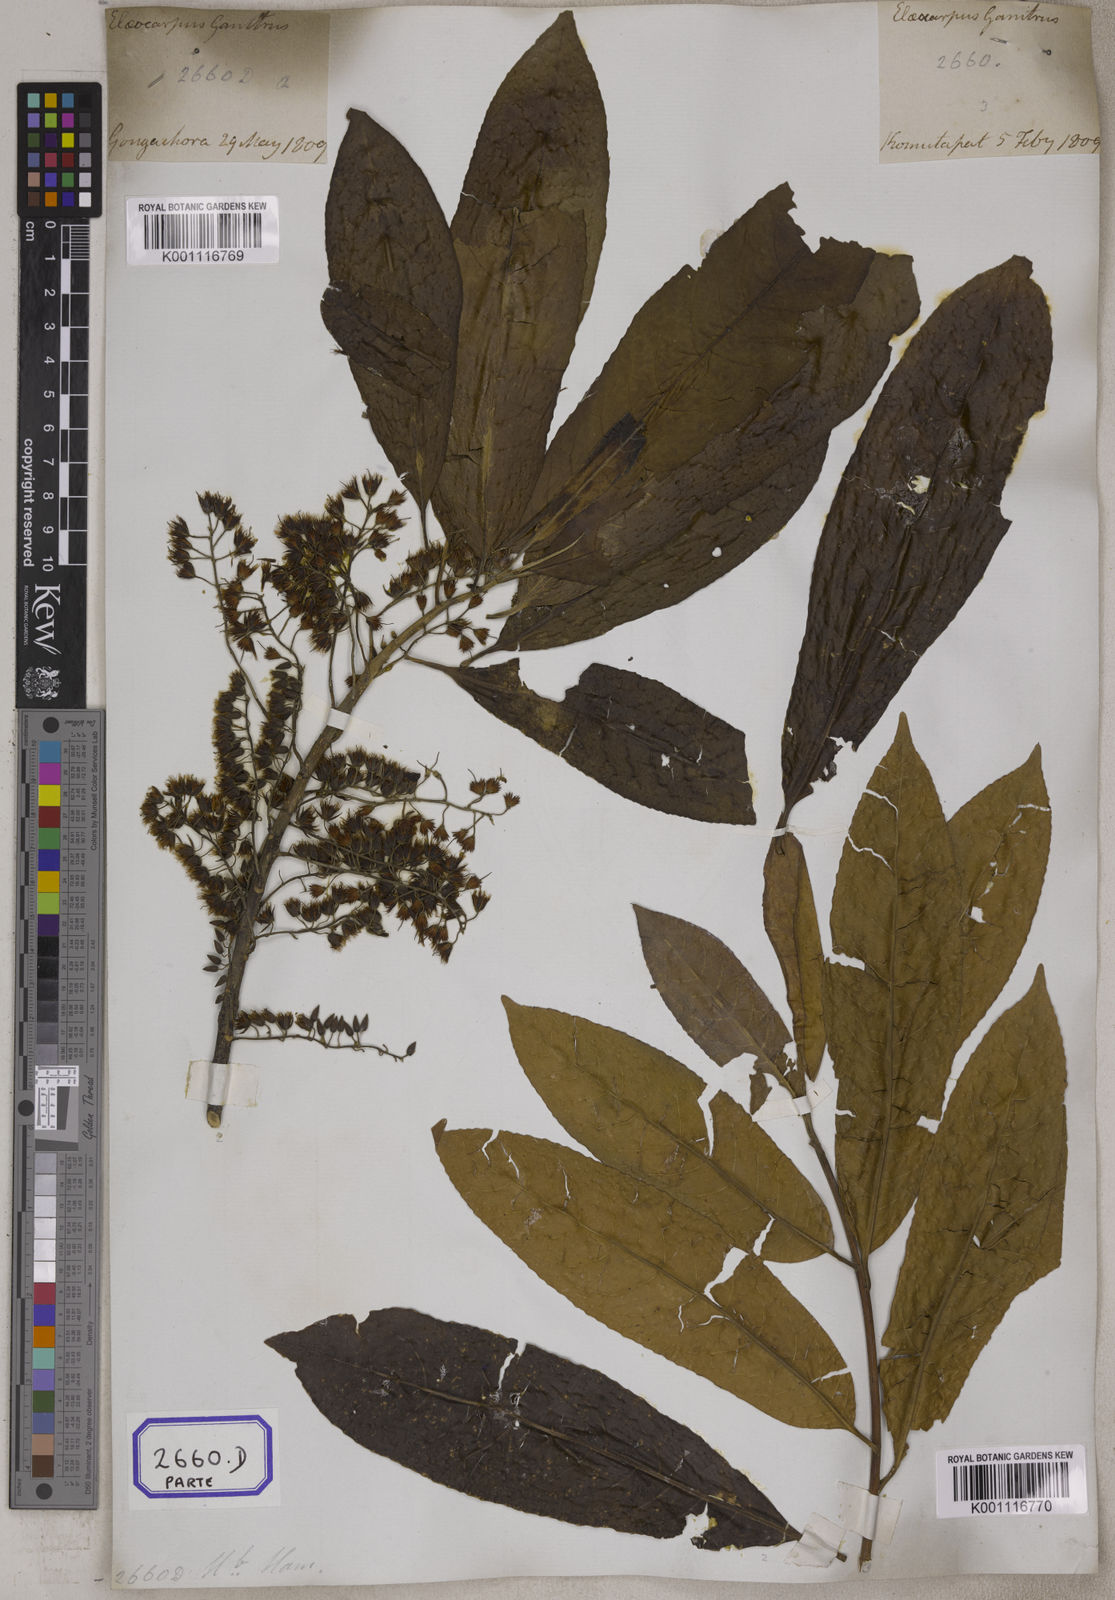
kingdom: Plantae
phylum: Tracheophyta
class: Magnoliopsida
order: Oxalidales
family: Elaeocarpaceae
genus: Elaeocarpus
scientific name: Elaeocarpus
